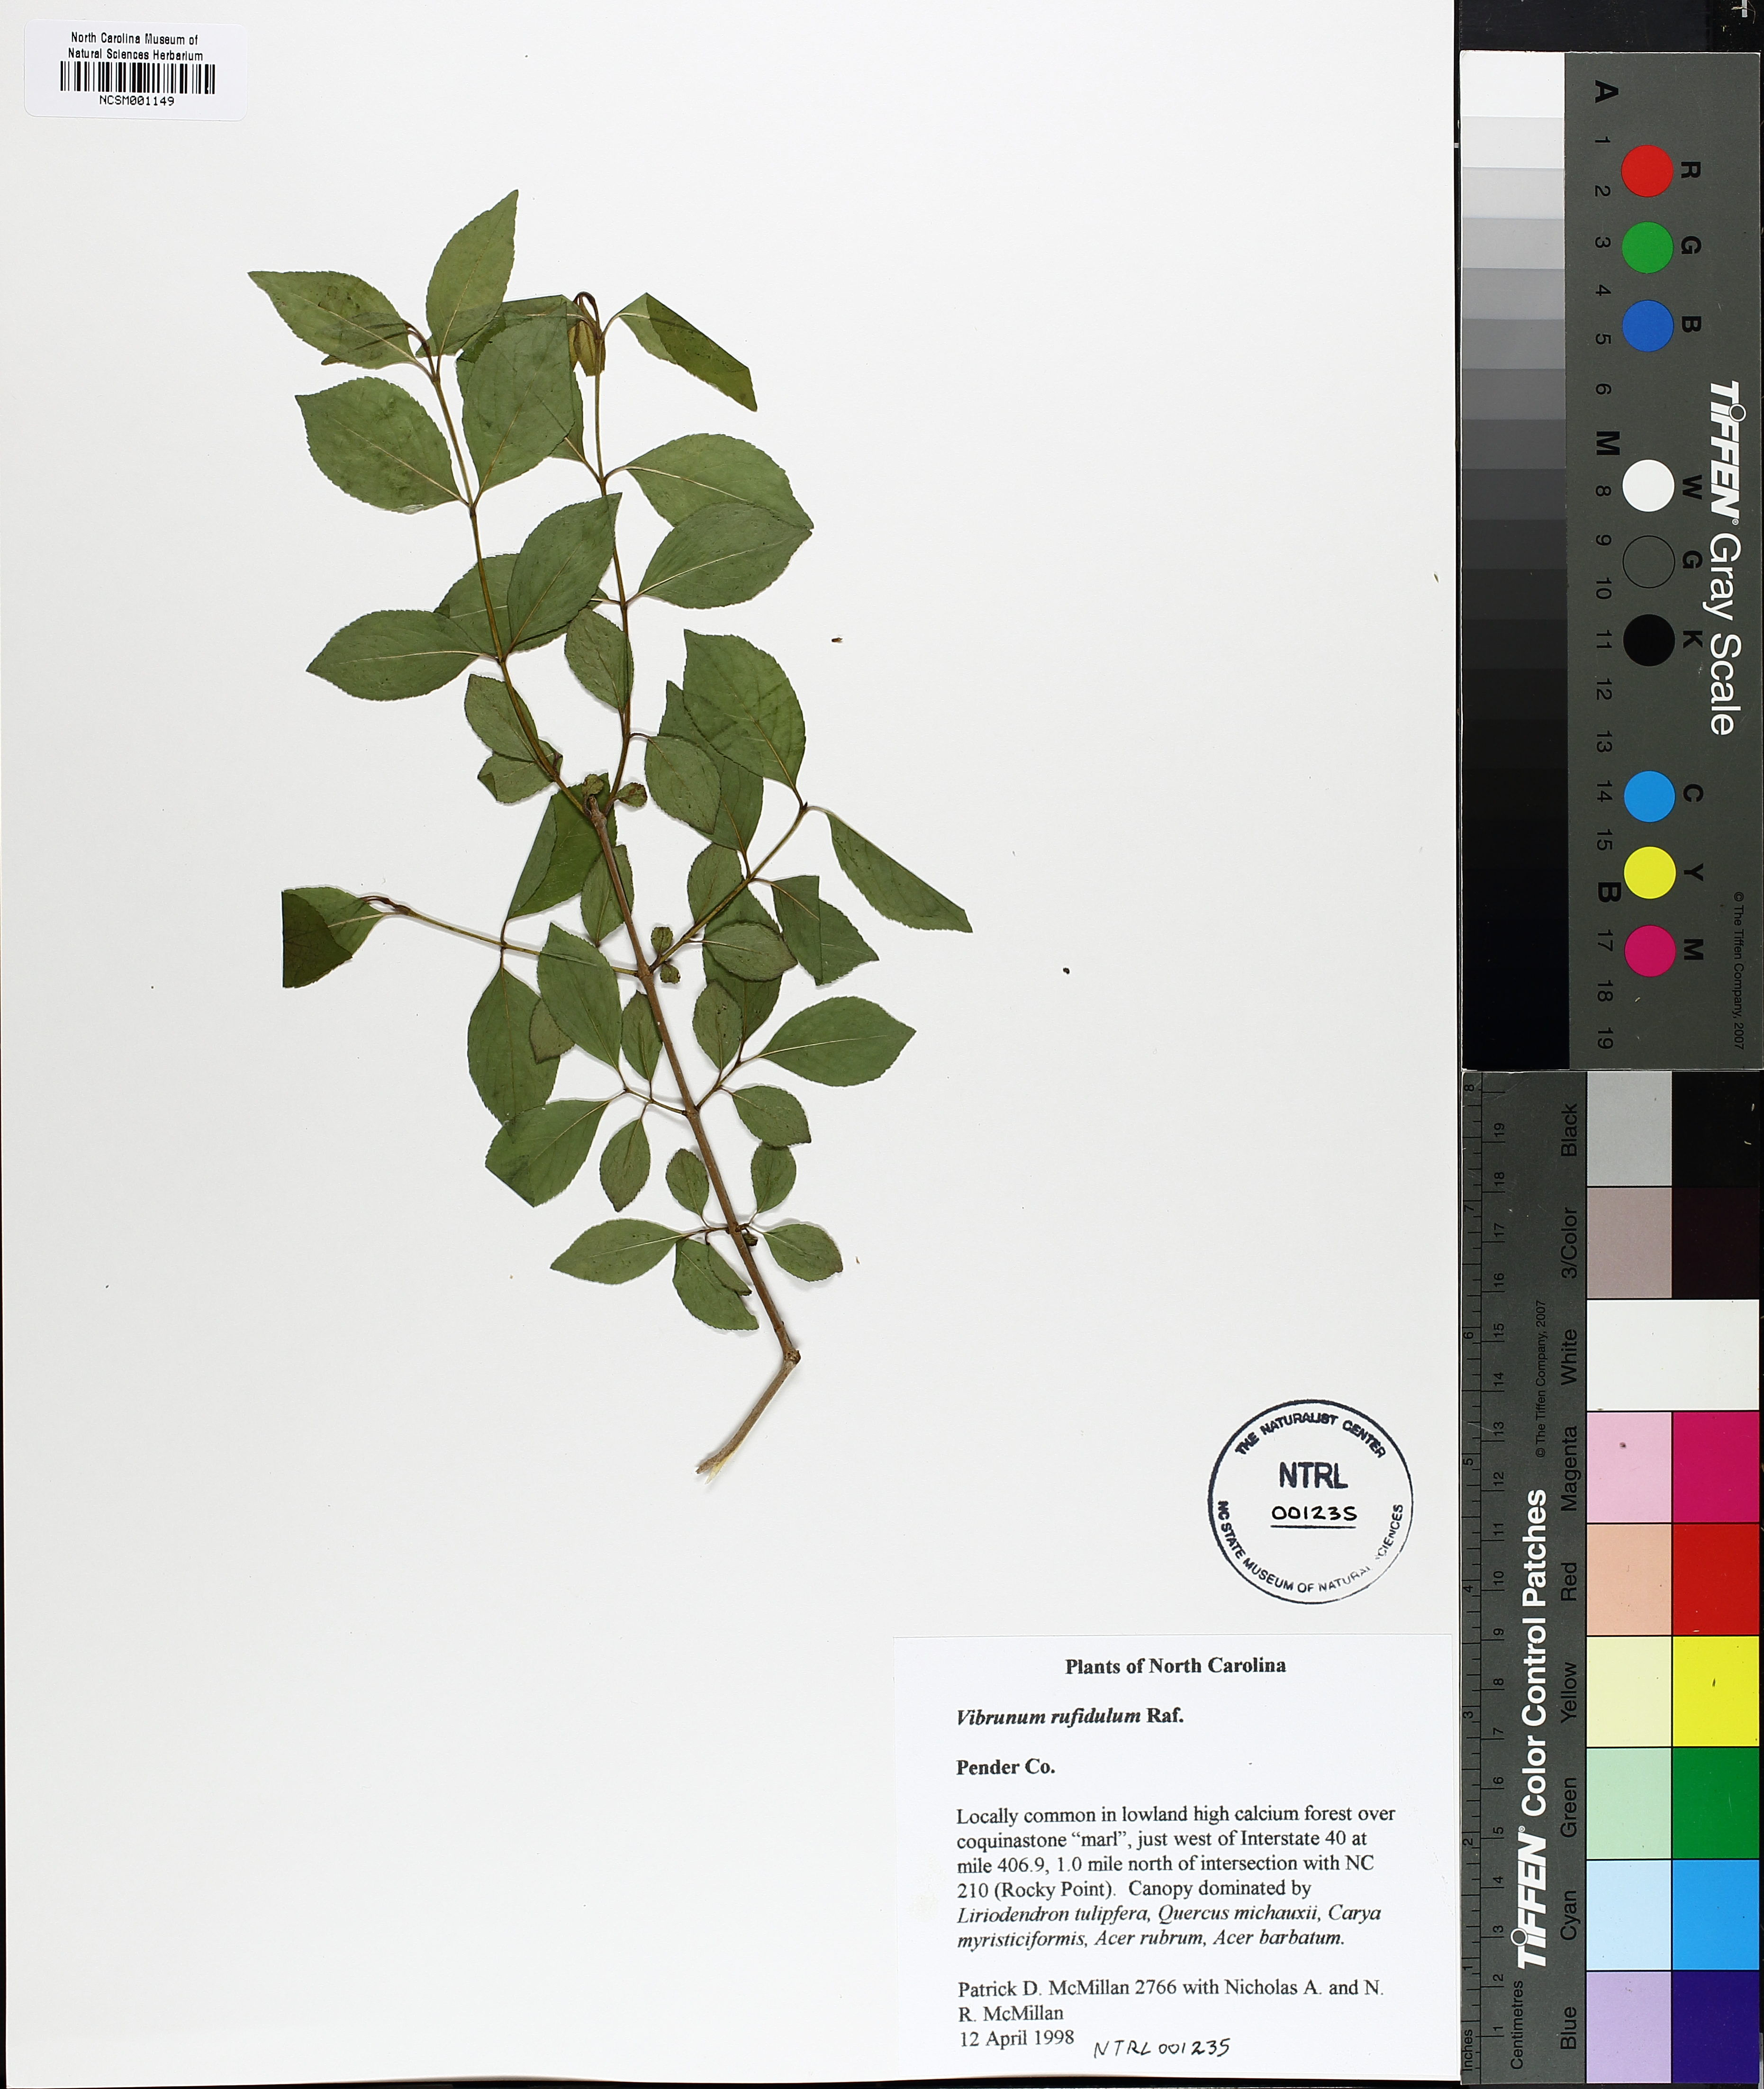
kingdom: Plantae
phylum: Tracheophyta
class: Magnoliopsida
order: Dipsacales
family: Viburnaceae
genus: Viburnum
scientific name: Viburnum rufidulum
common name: Blue haw
